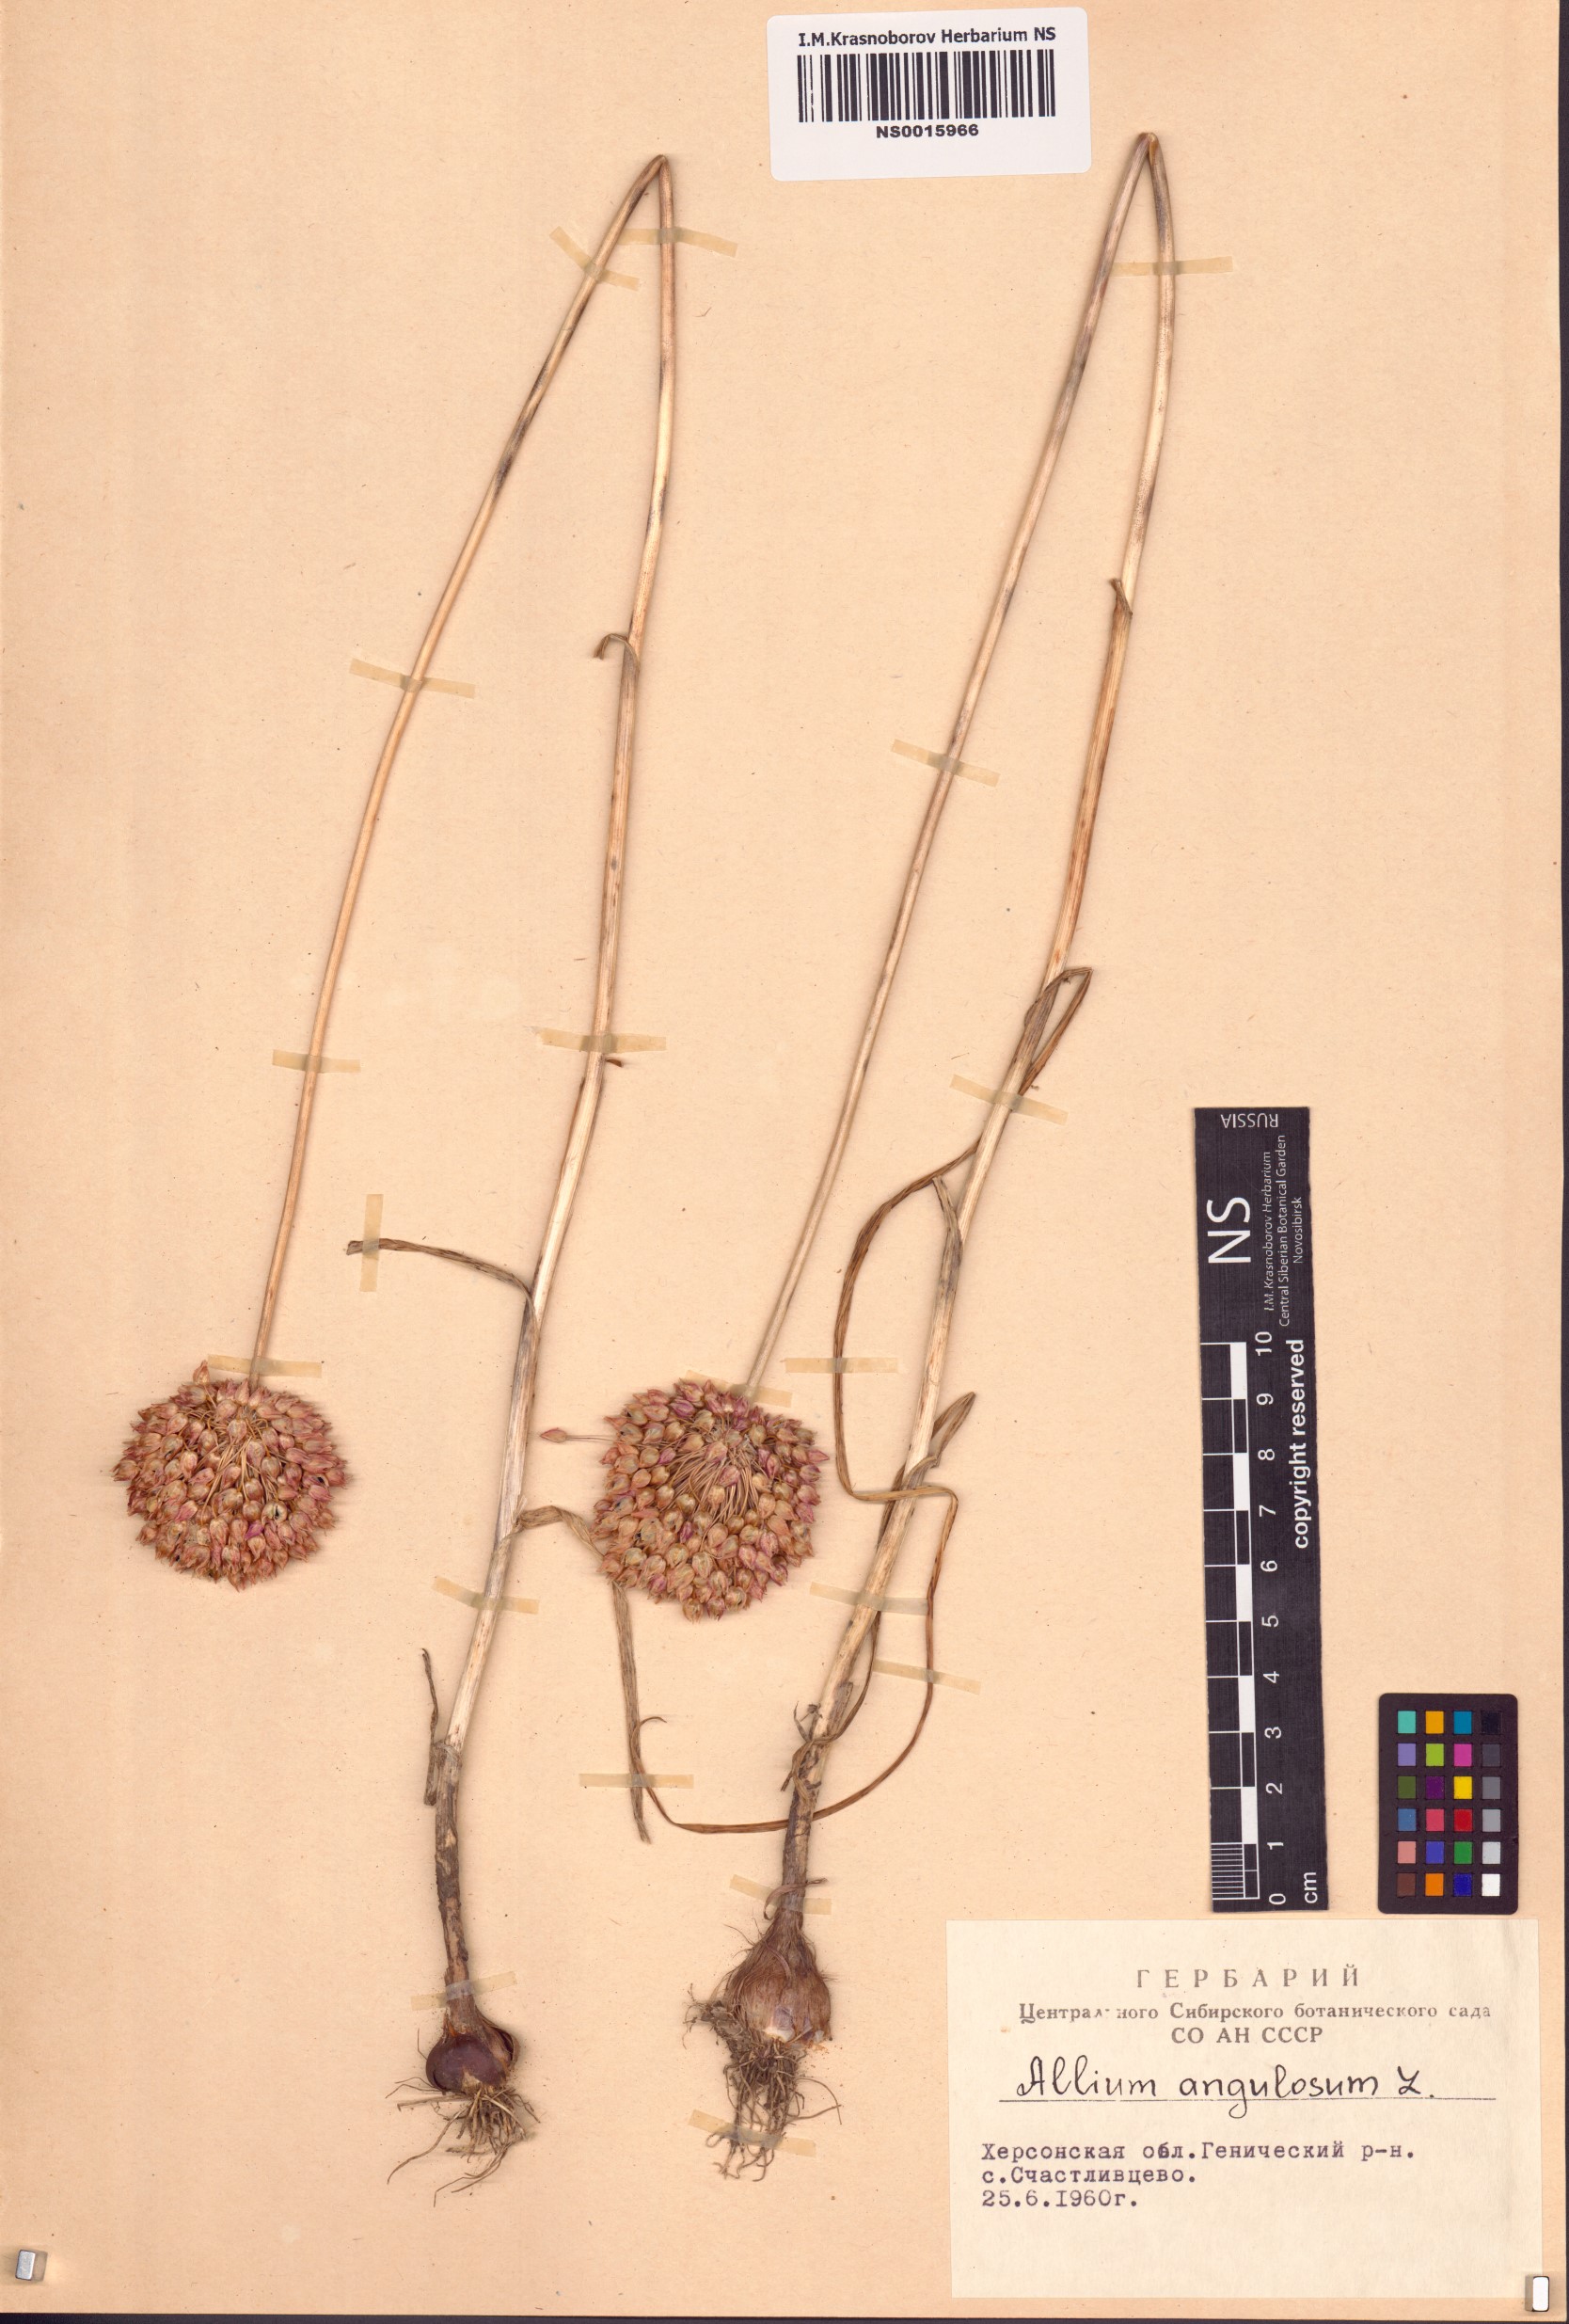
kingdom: Plantae
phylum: Tracheophyta
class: Liliopsida
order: Asparagales
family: Amaryllidaceae
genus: Allium
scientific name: Allium angulosum
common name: Mouse garlic
